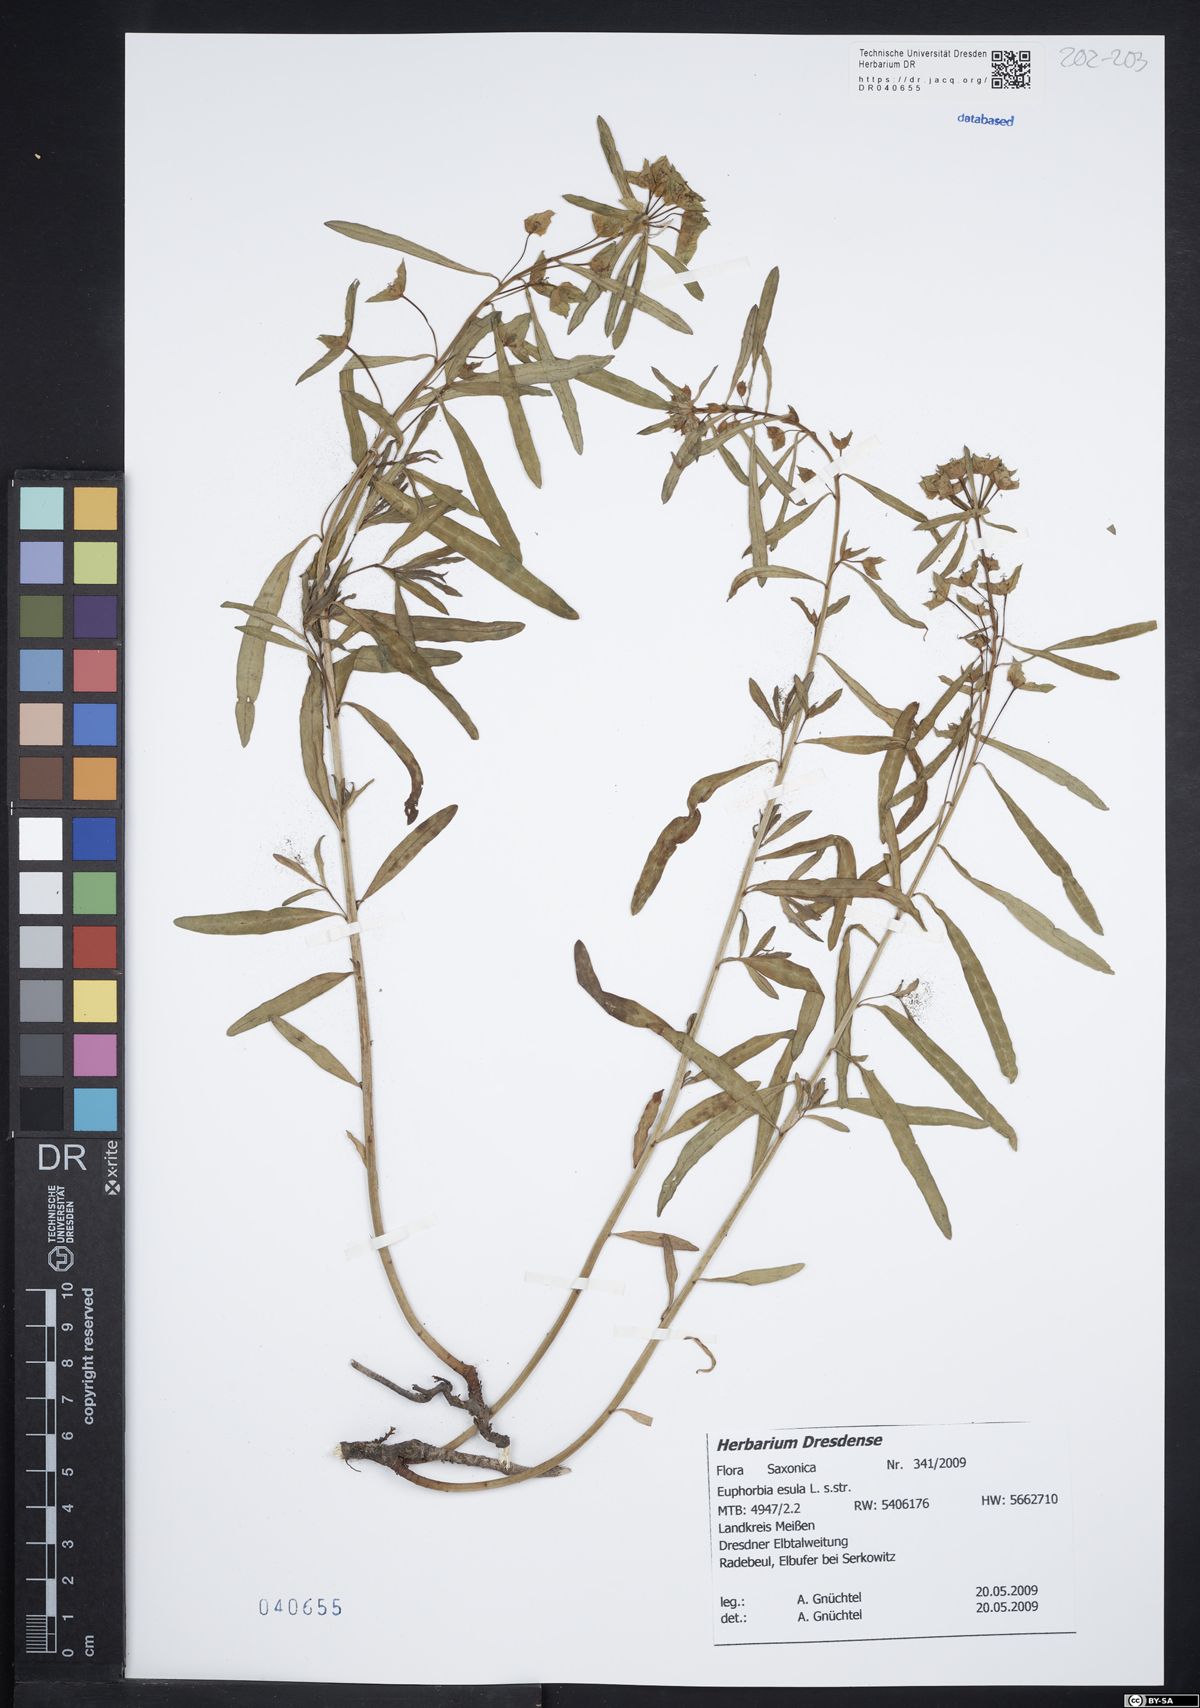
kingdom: Plantae
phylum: Tracheophyta
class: Magnoliopsida
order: Malpighiales
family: Euphorbiaceae
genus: Euphorbia
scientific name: Euphorbia esula
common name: Leafy spurge
